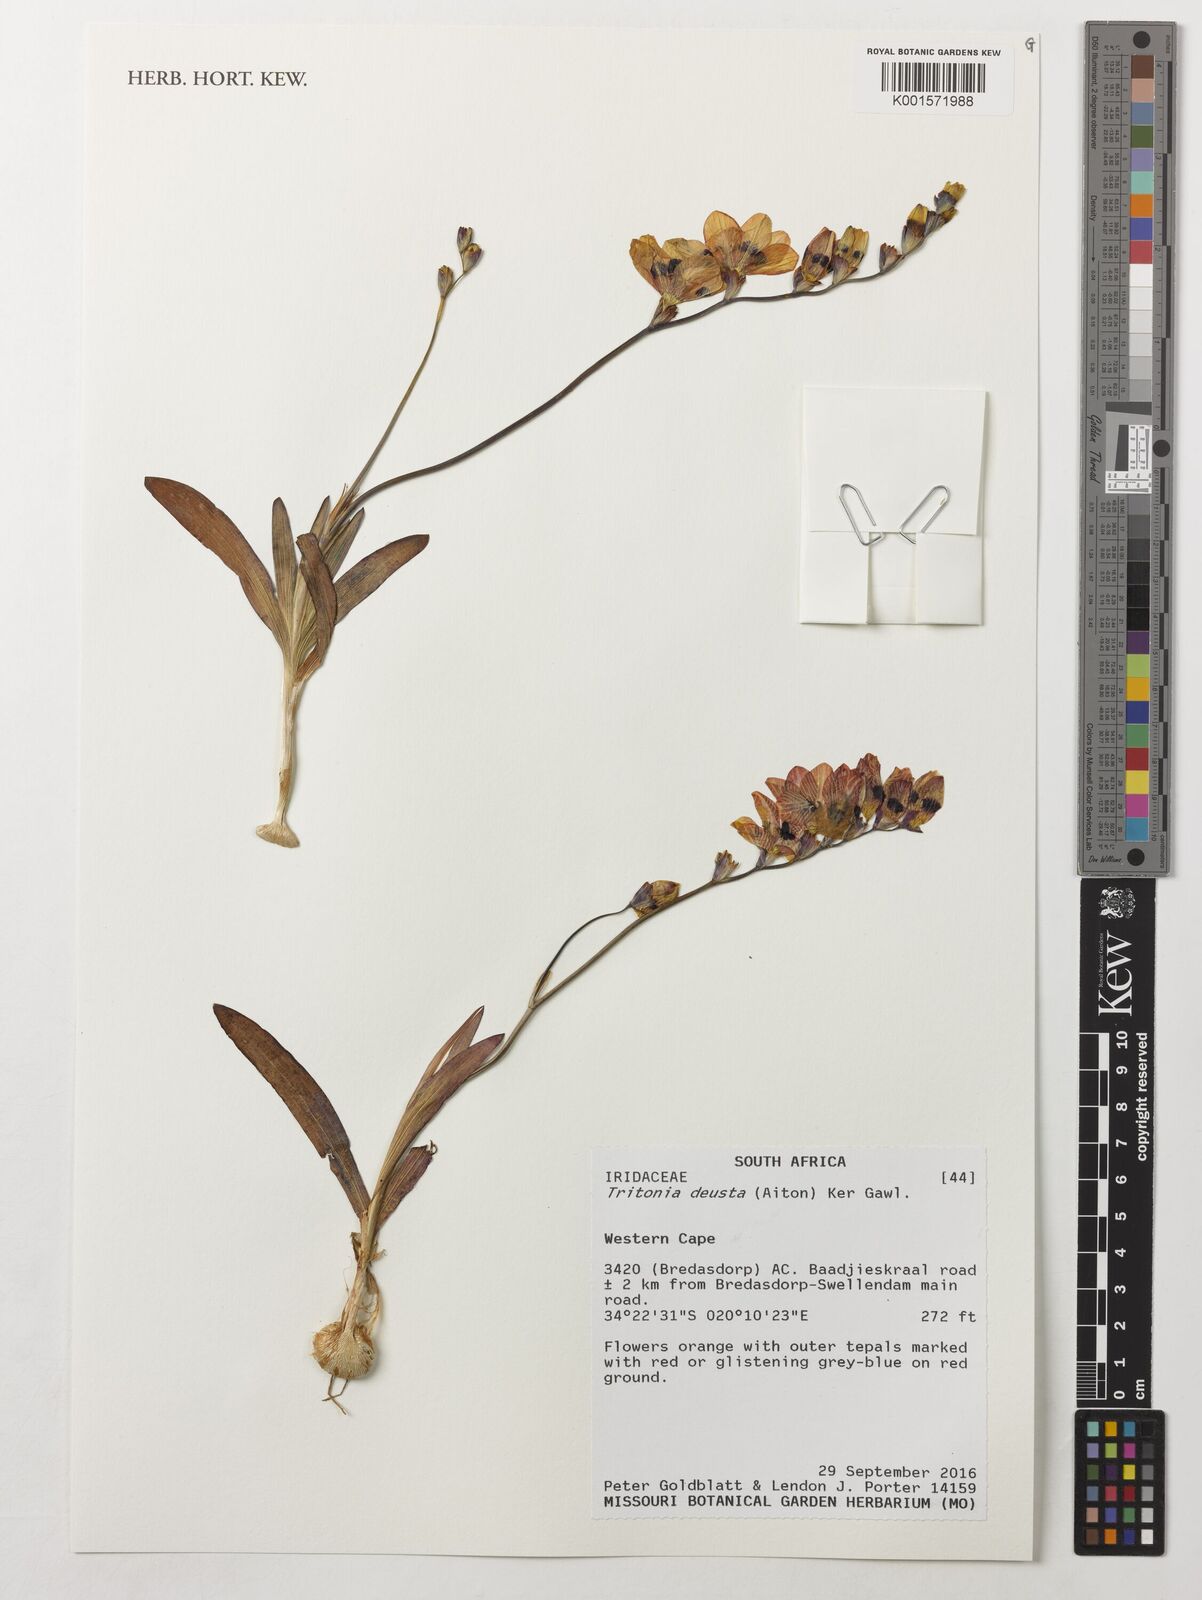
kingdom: Plantae
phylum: Tracheophyta
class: Liliopsida
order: Asparagales
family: Iridaceae
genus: Tritonia
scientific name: Tritonia deusta
